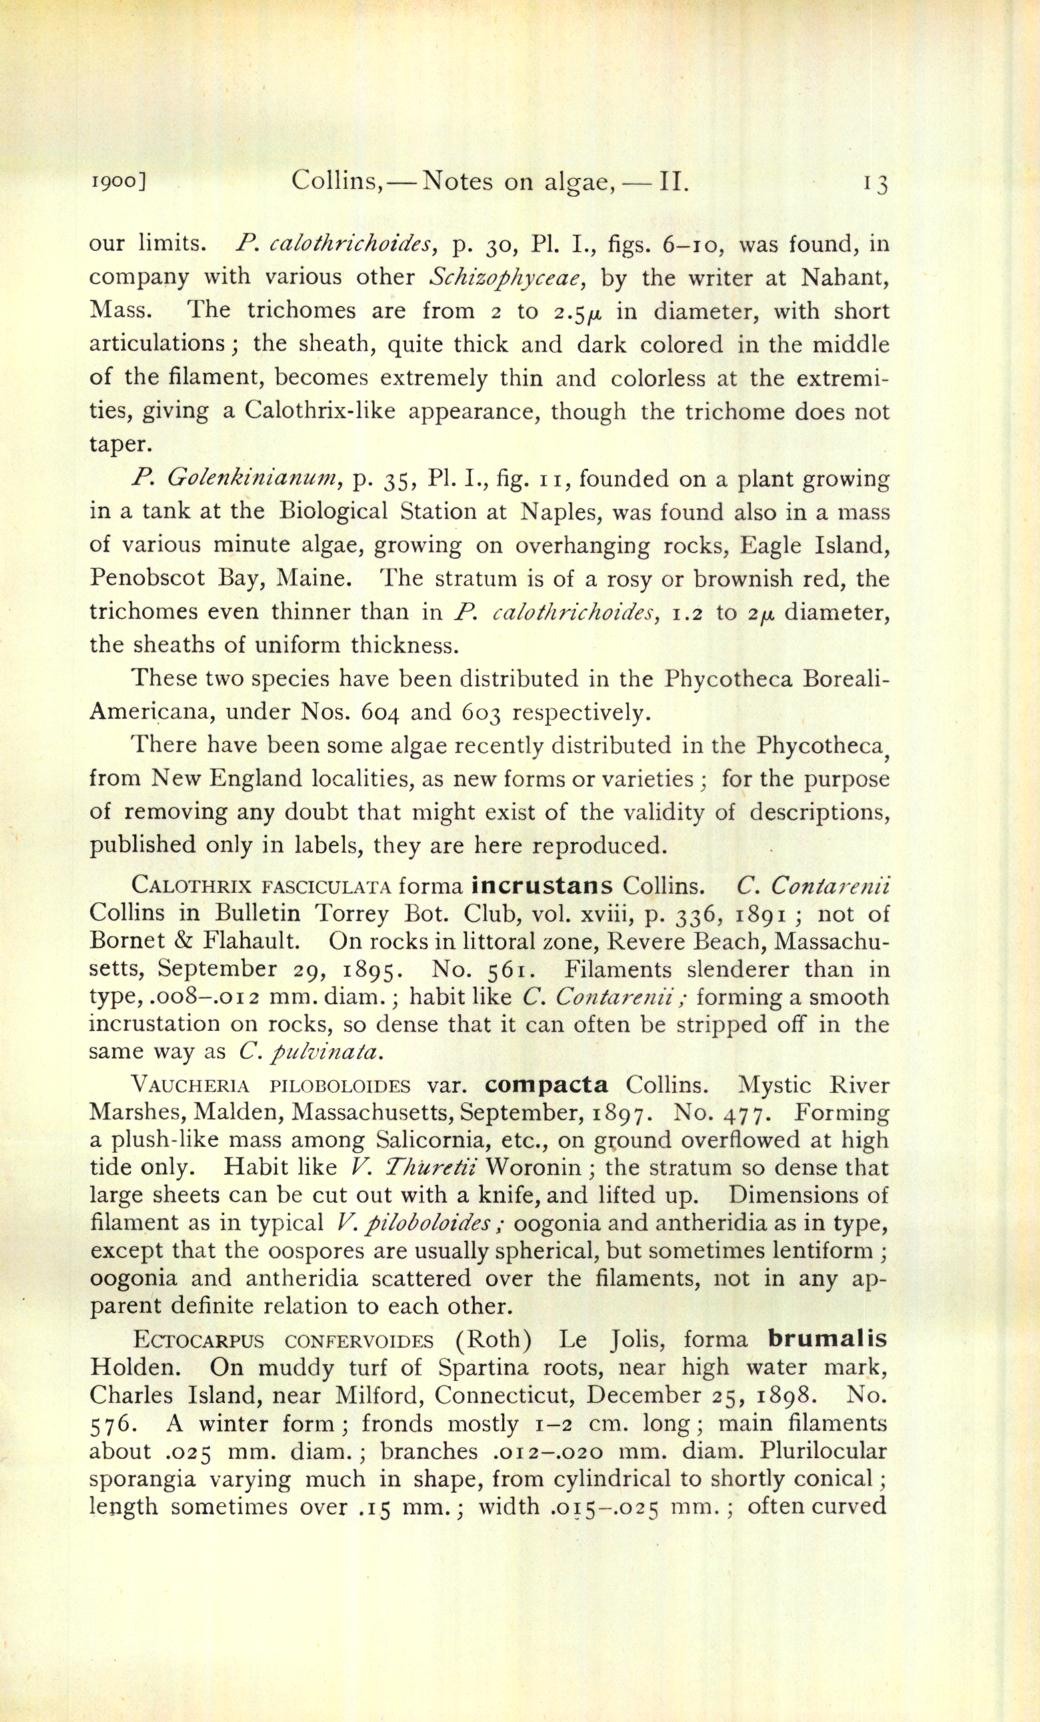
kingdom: Chromista
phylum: Ochrophyta
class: Xanthophyceae
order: Vaucheriales
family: Vaucheriaceae
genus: Vaucheria
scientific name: Vaucheria compacta
